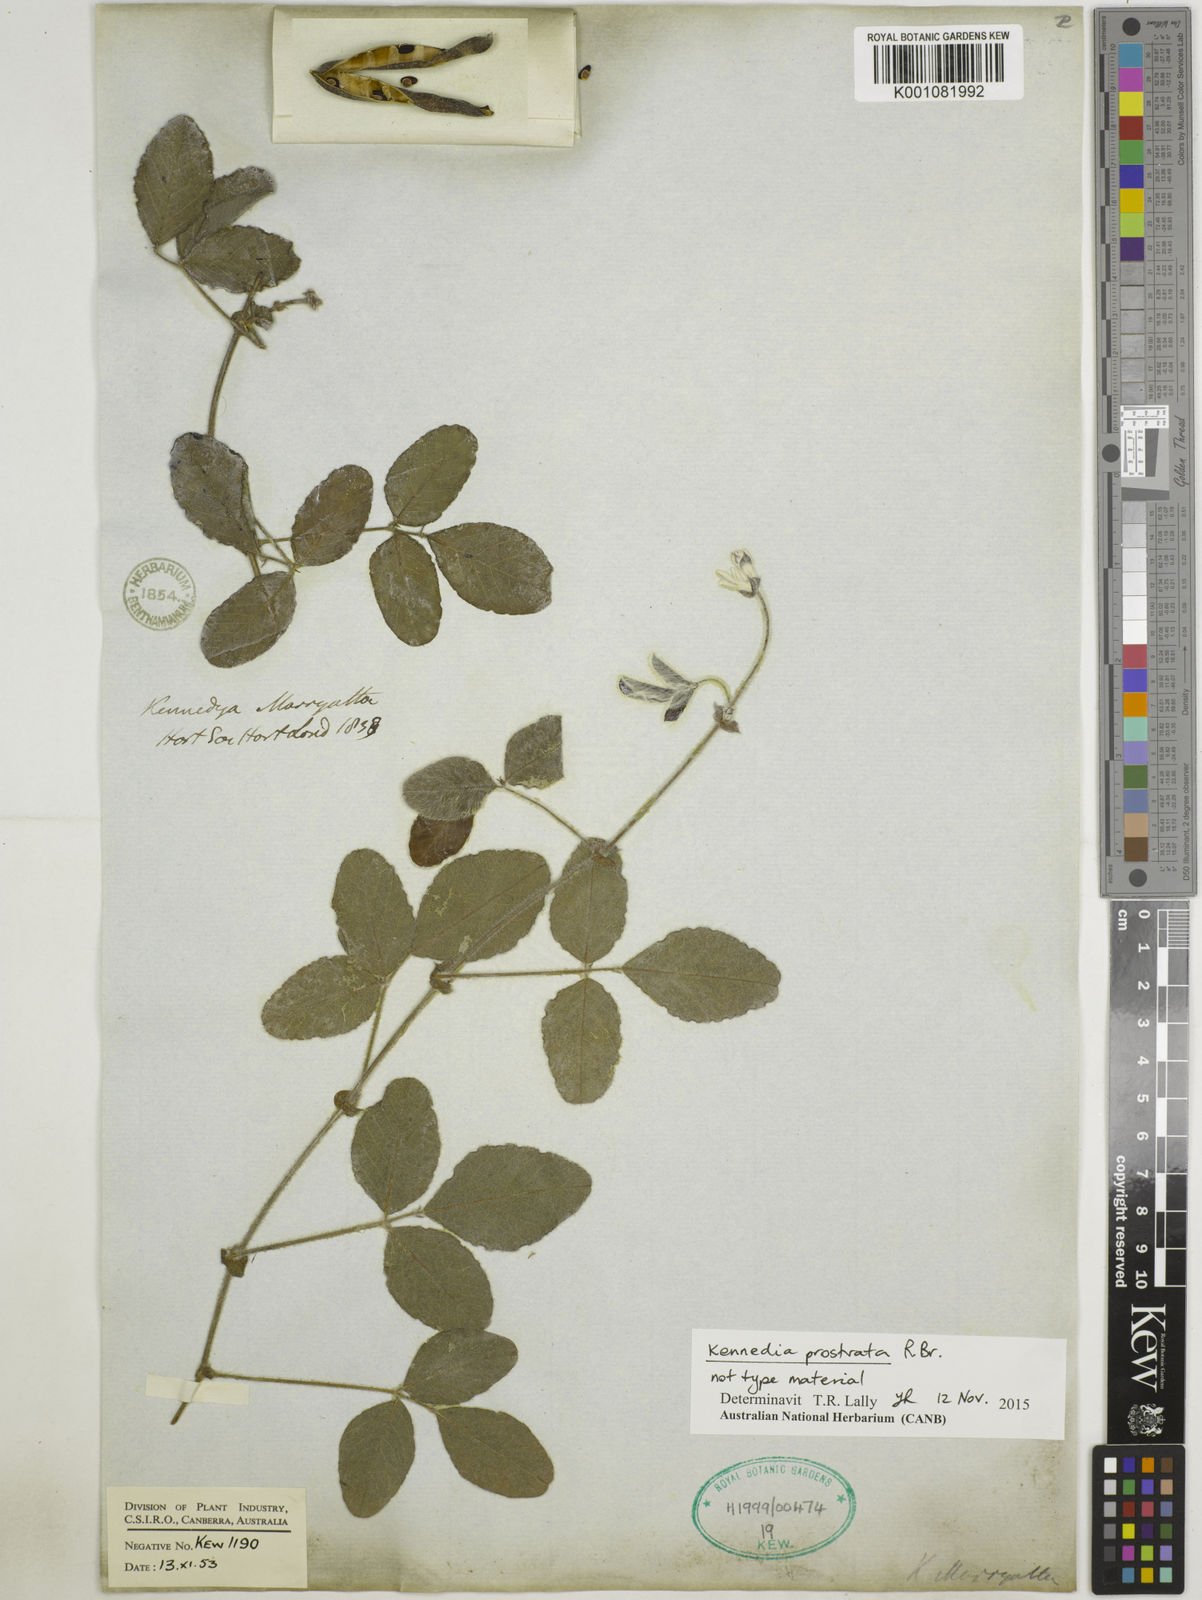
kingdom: Plantae
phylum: Tracheophyta
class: Magnoliopsida
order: Fabales
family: Fabaceae
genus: Kennedia
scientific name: Kennedia prostrata
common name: Running-postman
